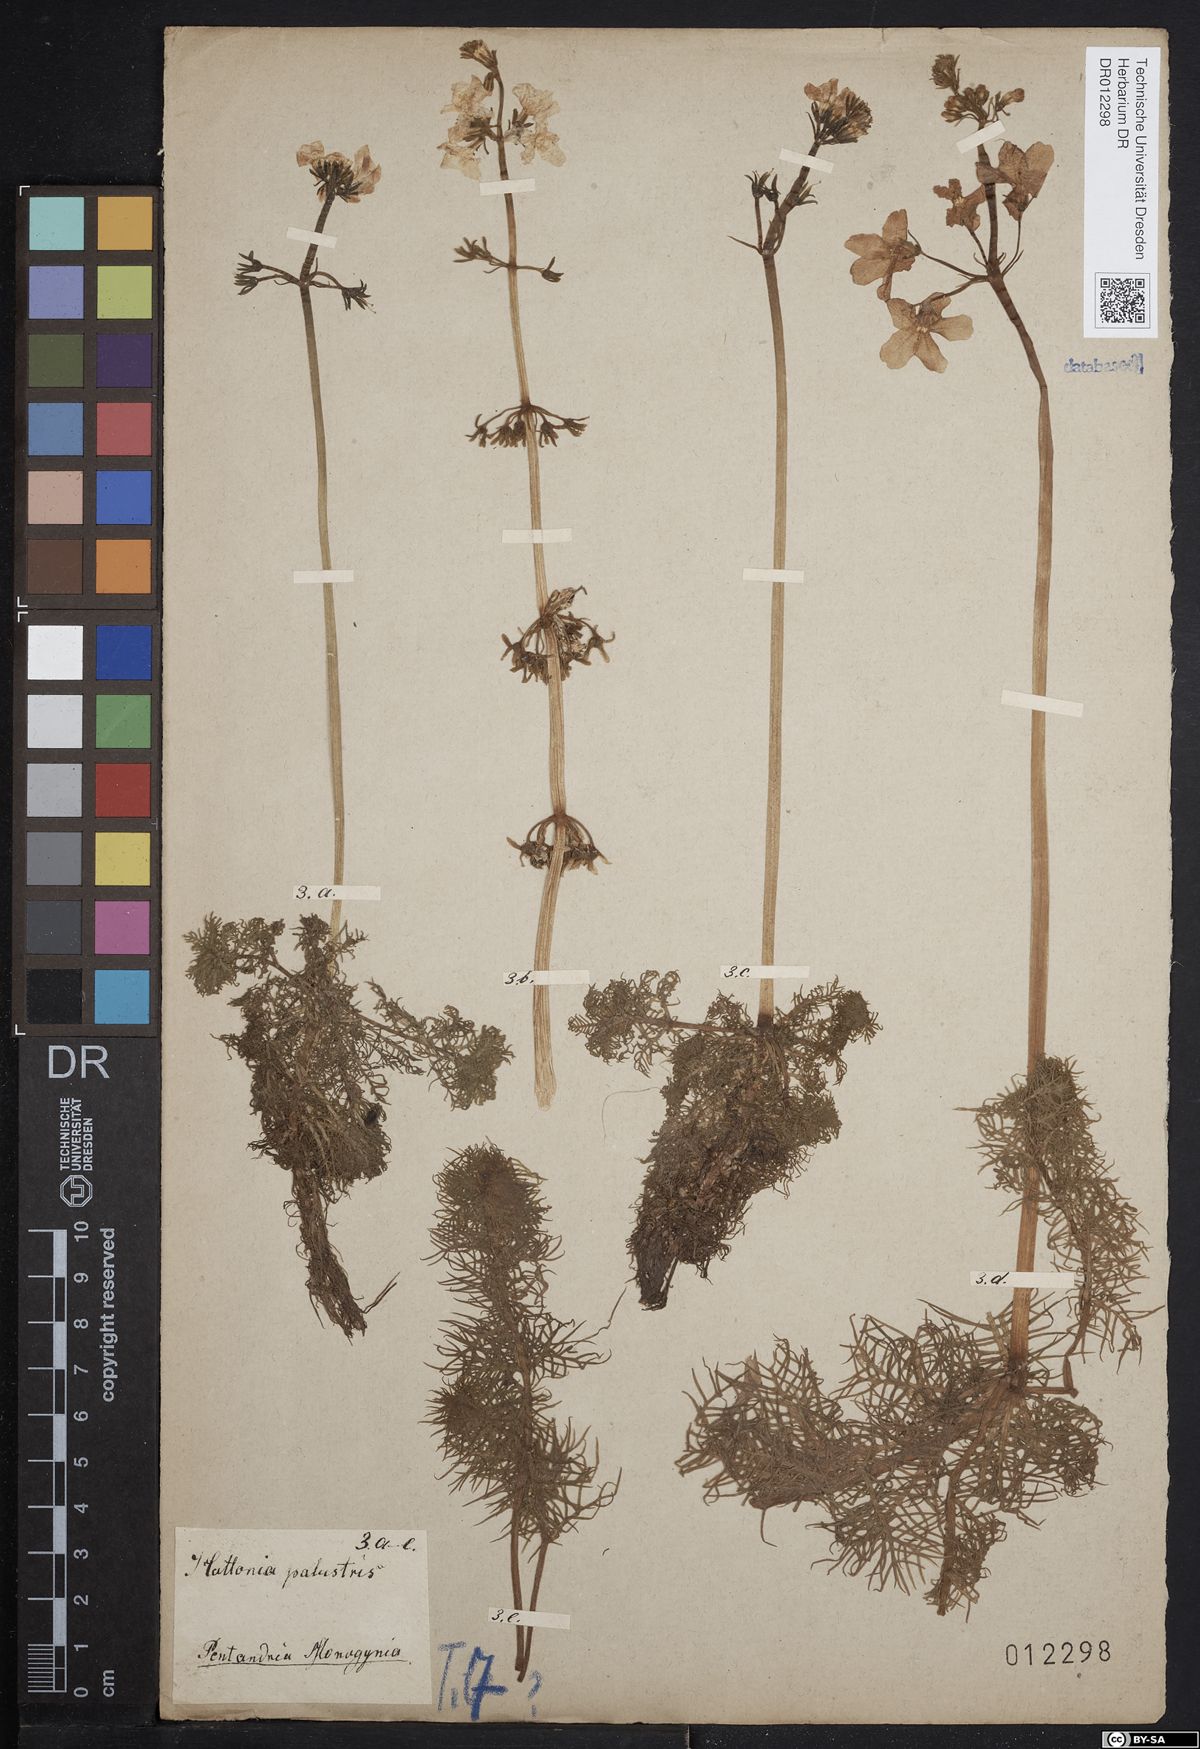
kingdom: Plantae
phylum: Tracheophyta
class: Magnoliopsida
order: Ericales
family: Primulaceae
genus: Hottonia
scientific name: Hottonia palustris
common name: Water-violet
